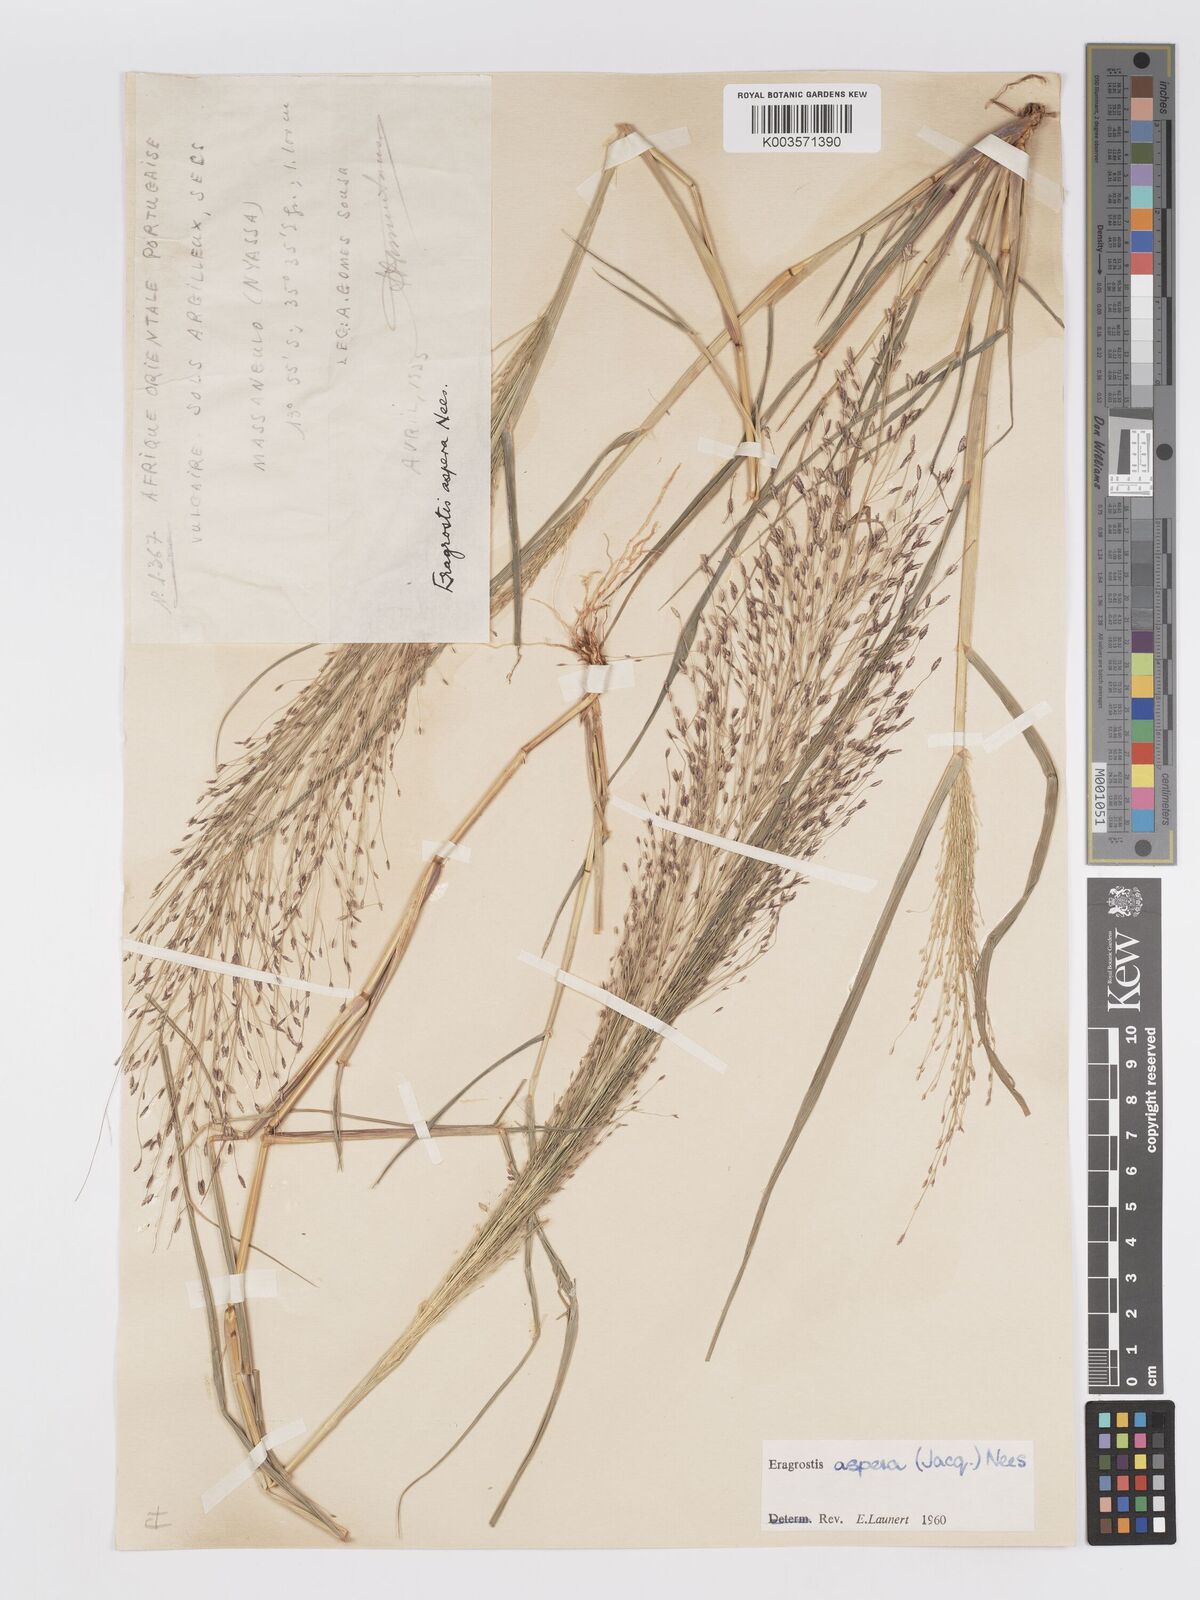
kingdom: Plantae
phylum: Tracheophyta
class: Liliopsida
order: Poales
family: Poaceae
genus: Eragrostis
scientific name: Eragrostis aspera
